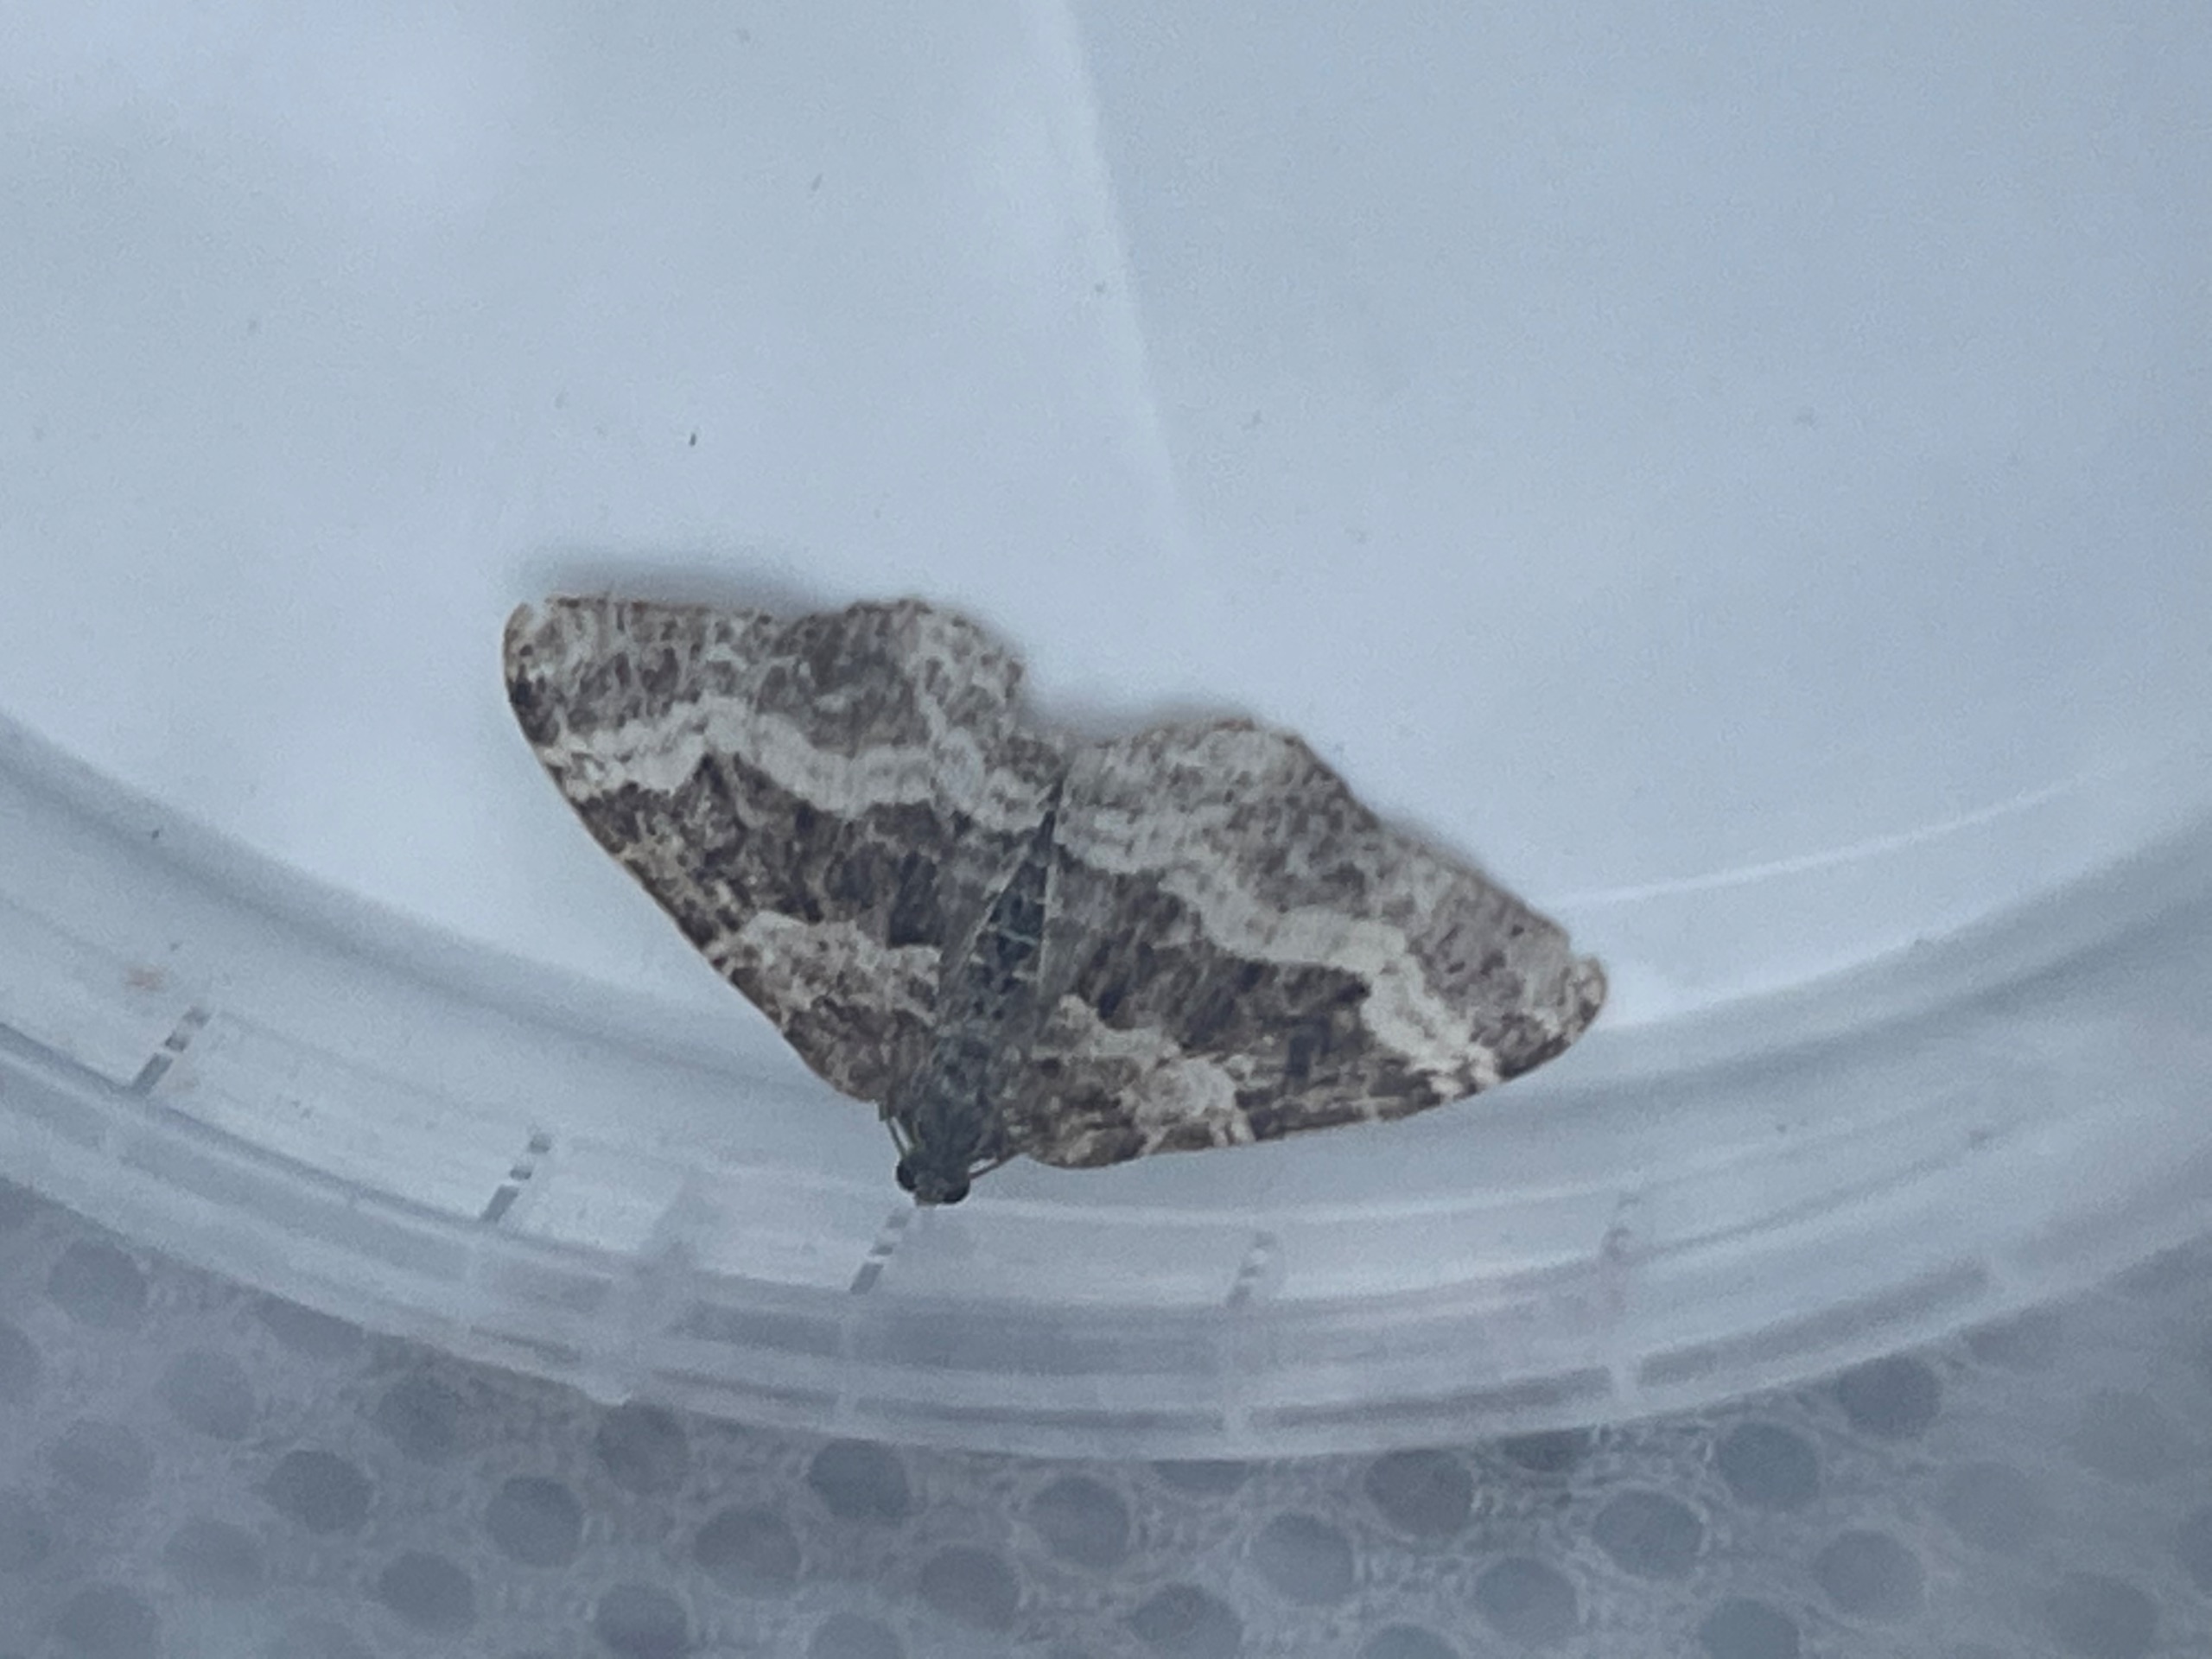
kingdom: Animalia
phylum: Arthropoda
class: Insecta
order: Lepidoptera
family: Geometridae
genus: Epirrhoe
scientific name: Epirrhoe alternata
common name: Almindelig bladmåler
